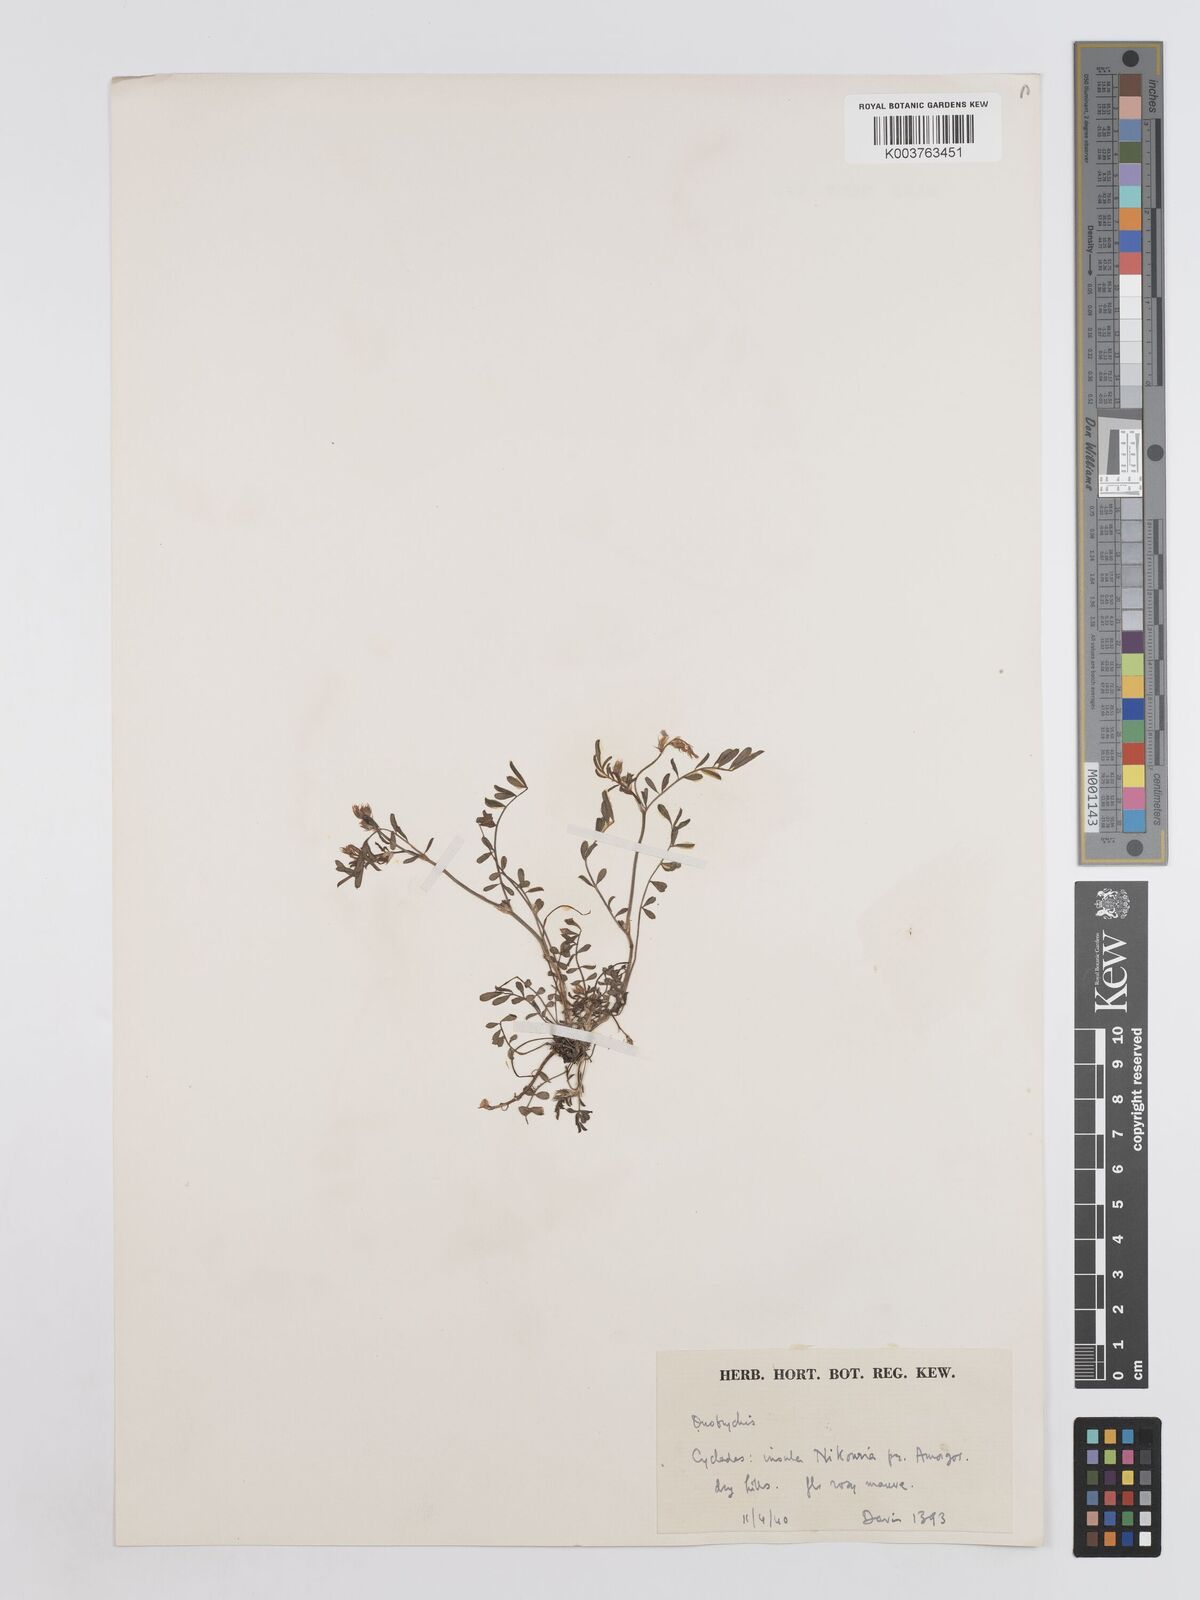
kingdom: Plantae
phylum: Tracheophyta
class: Magnoliopsida
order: Fabales
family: Fabaceae
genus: Onobrychis
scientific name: Onobrychis caput-galli
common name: Cockscomb sainfoin
